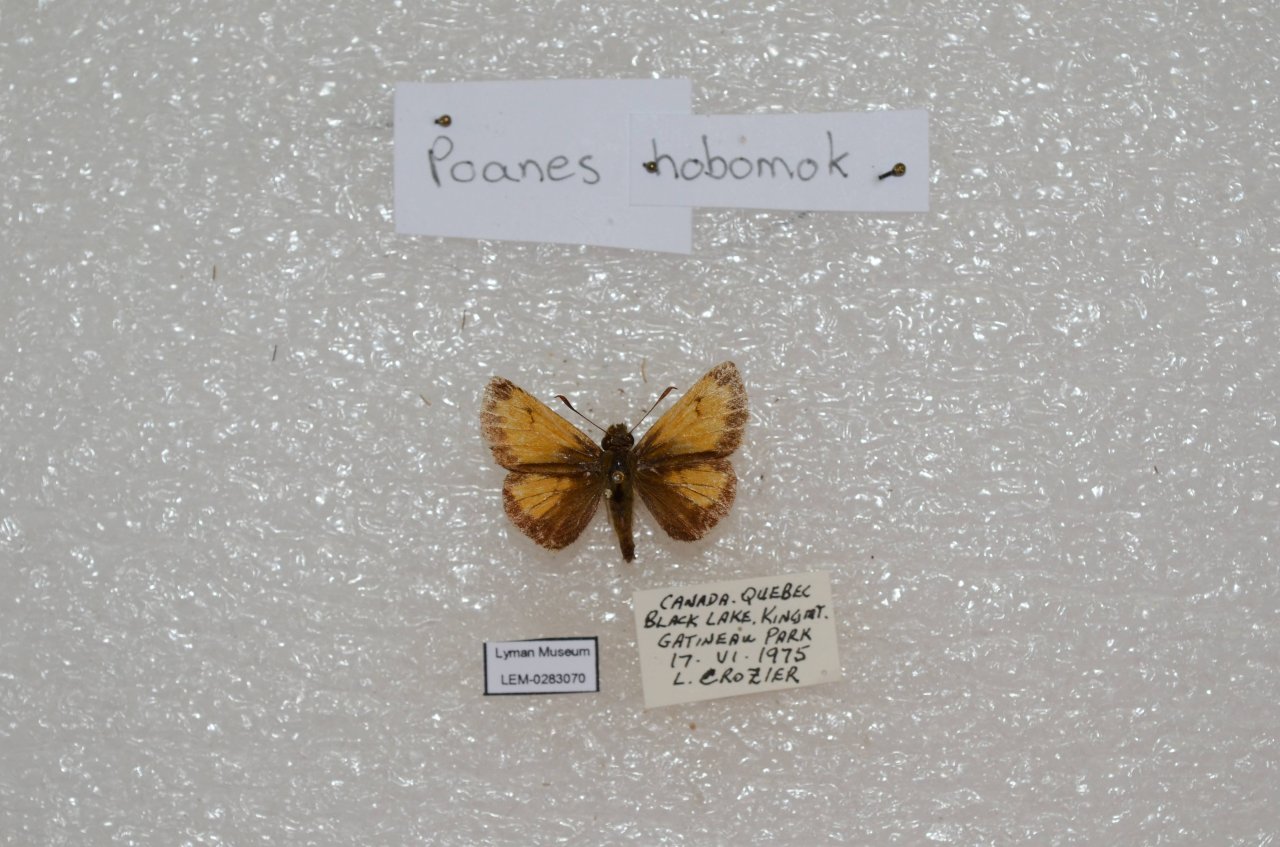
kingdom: Animalia
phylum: Arthropoda
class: Insecta
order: Lepidoptera
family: Hesperiidae
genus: Lon
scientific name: Lon hobomok
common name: Hobomok Skipper
